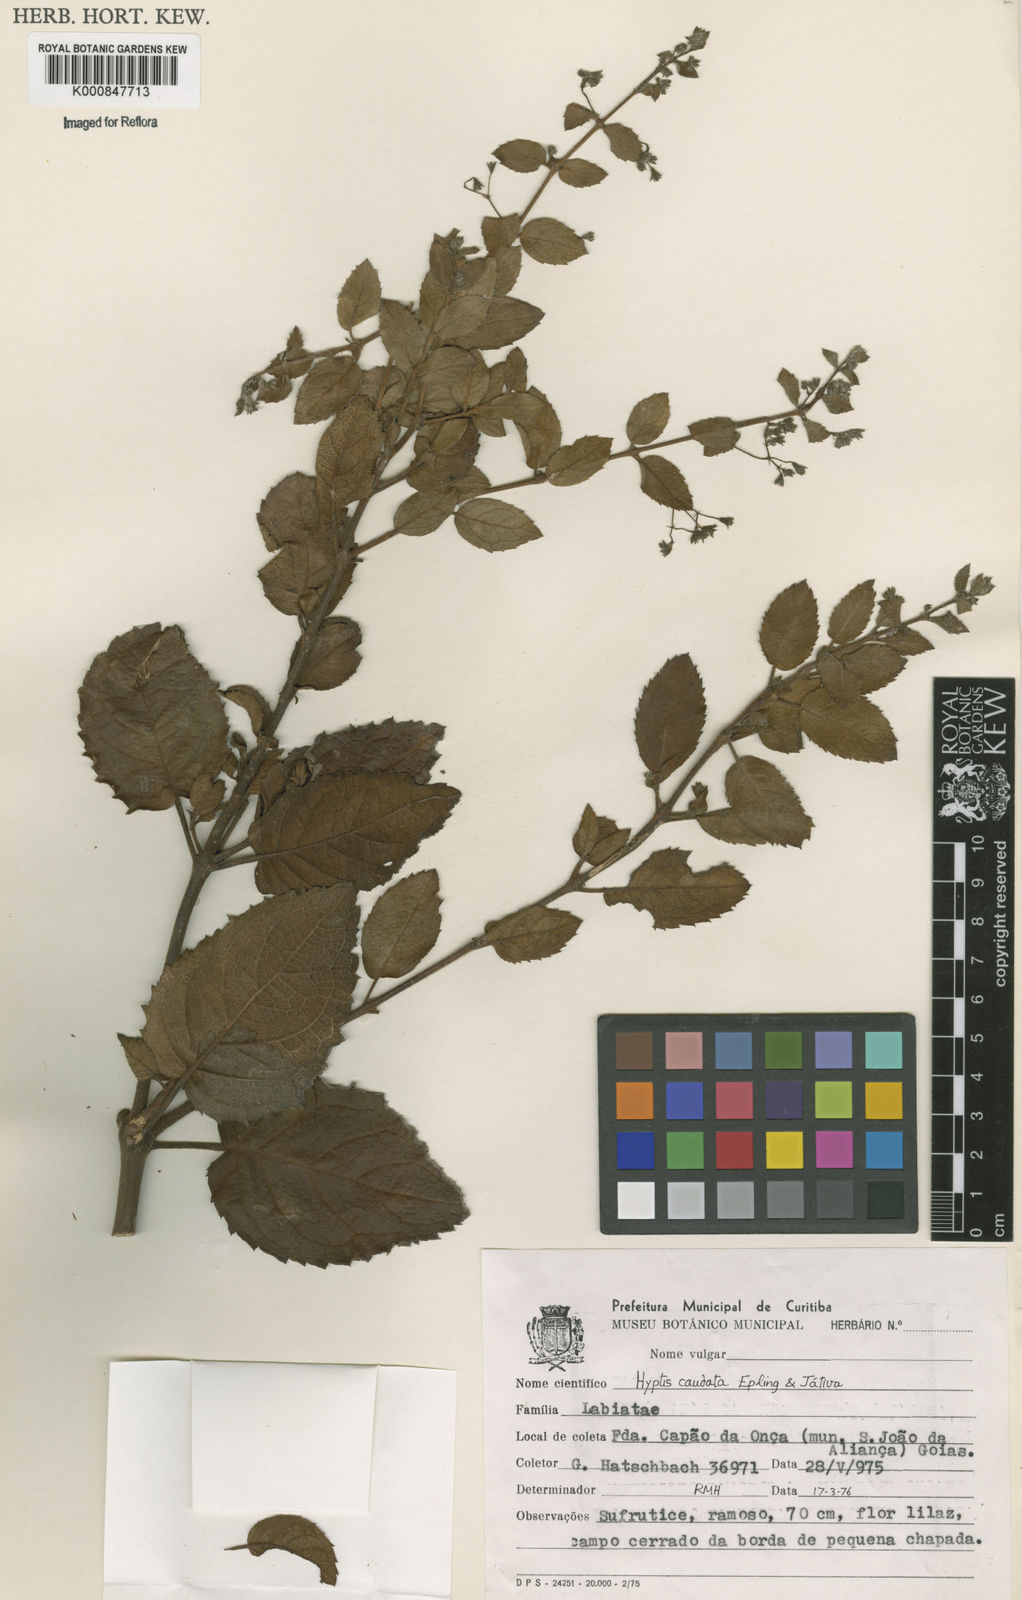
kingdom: Plantae
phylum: Tracheophyta
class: Magnoliopsida
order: Lamiales
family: Lamiaceae
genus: Hyptidendron
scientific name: Hyptidendron
